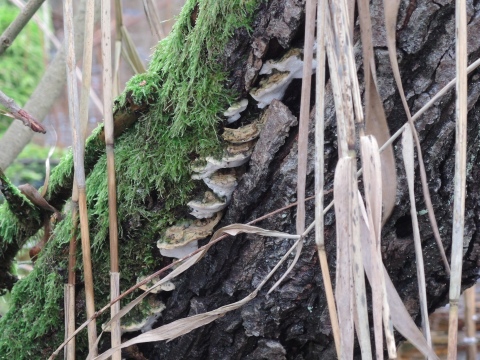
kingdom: Fungi
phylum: Basidiomycota
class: Agaricomycetes
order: Hymenochaetales
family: Oxyporaceae
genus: Oxyporus
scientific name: Oxyporus populinus
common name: sammenvokset trylleporesvamp
